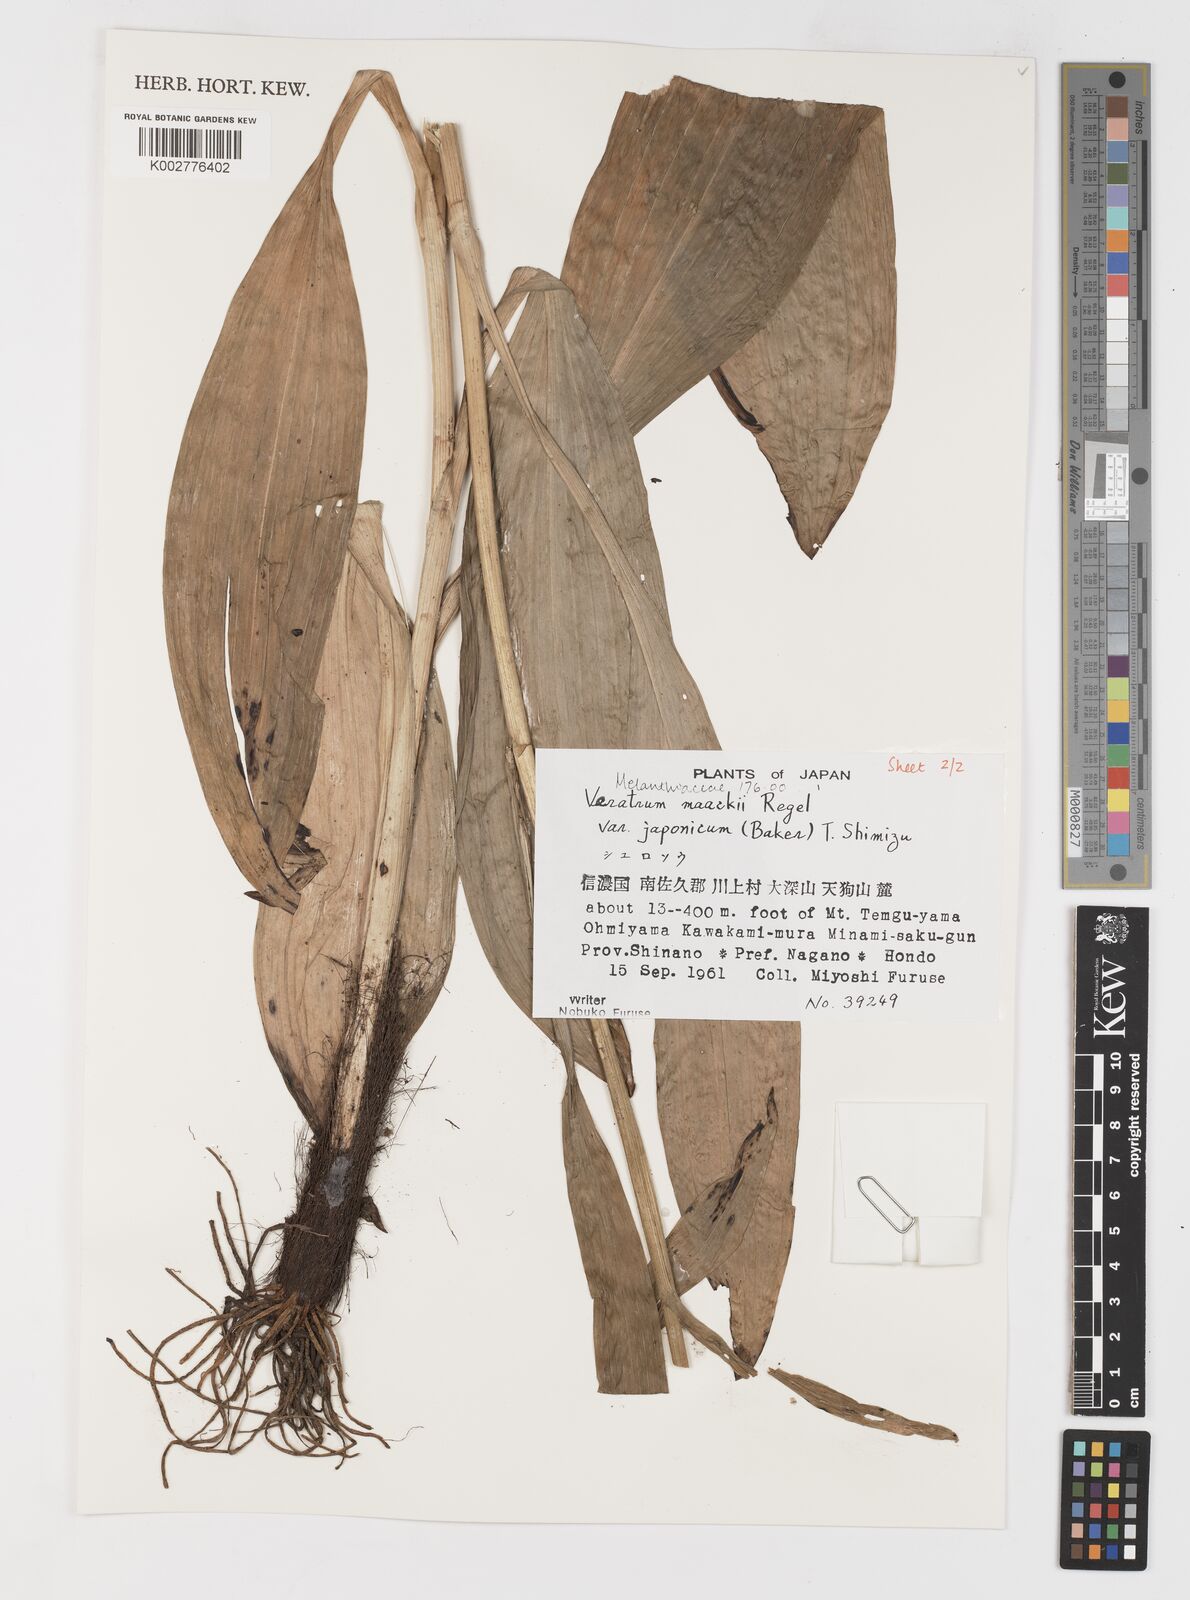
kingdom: Plantae
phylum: Tracheophyta
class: Liliopsida
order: Liliales
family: Melanthiaceae
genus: Veratrum
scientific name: Veratrum maackii
